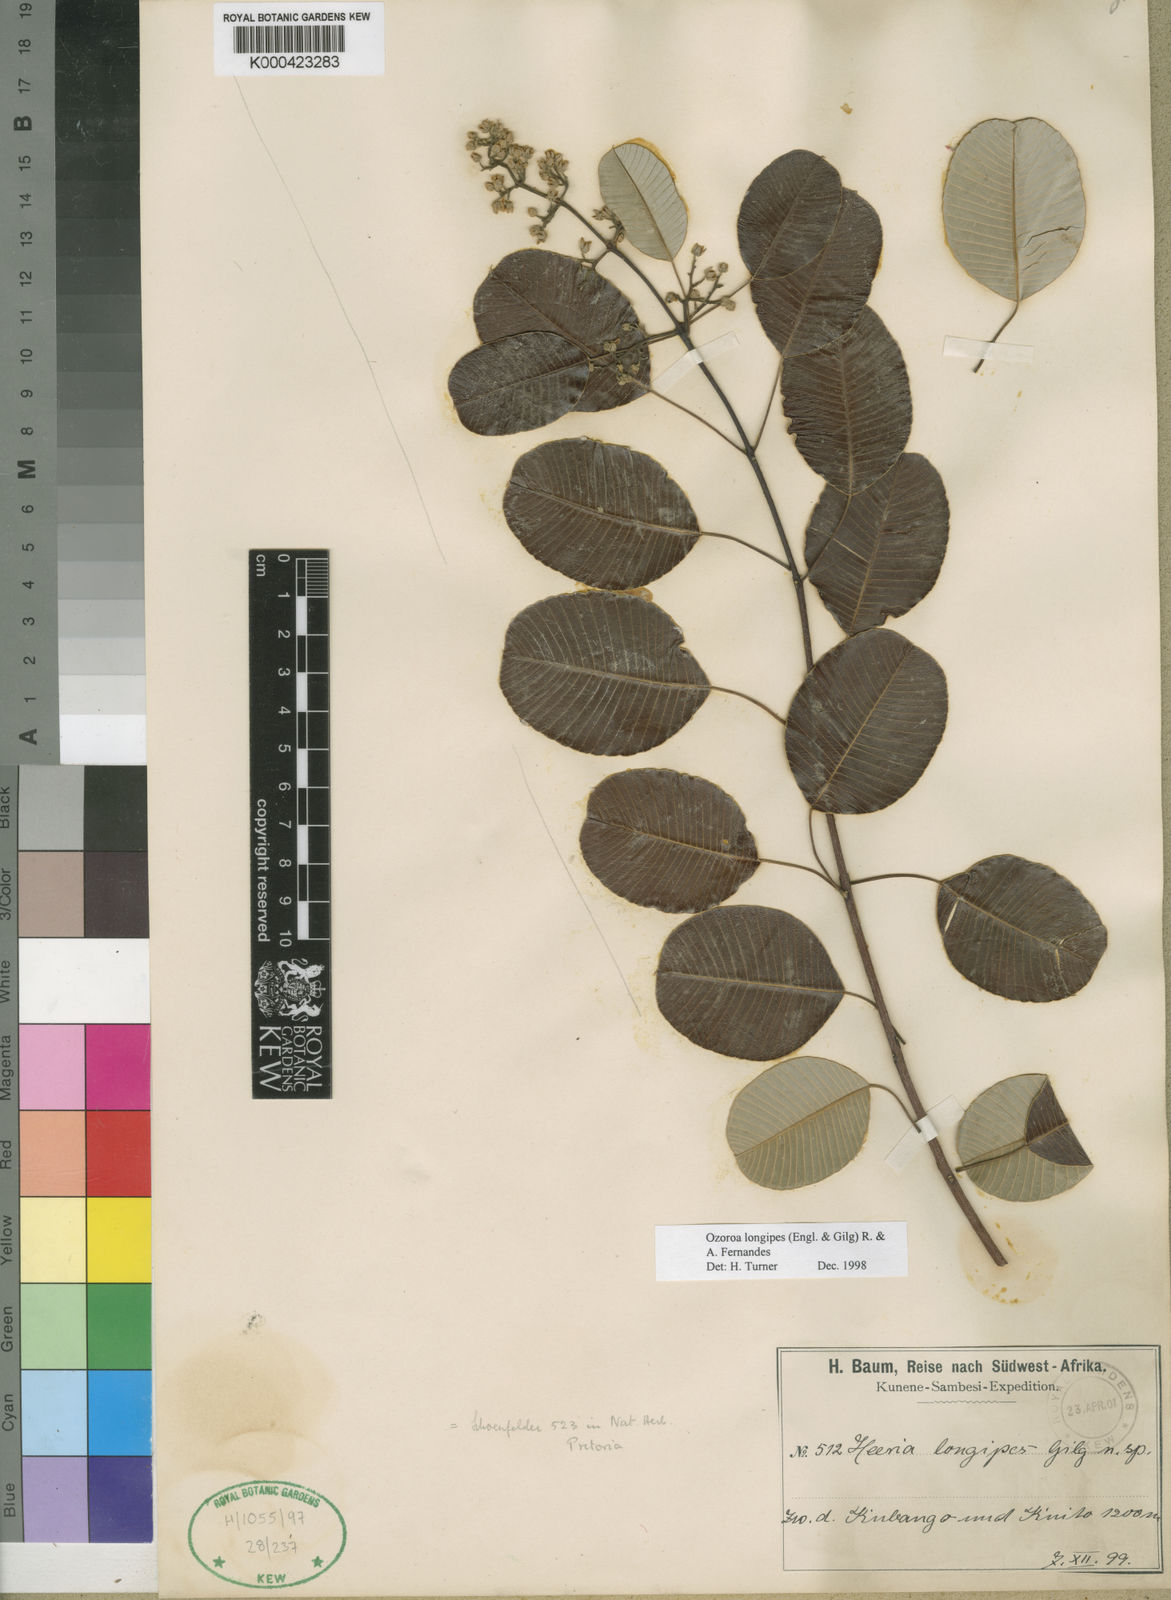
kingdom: Plantae
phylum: Tracheophyta
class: Magnoliopsida
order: Sapindales
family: Anacardiaceae
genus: Ozoroa
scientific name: Ozoroa longipes
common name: Round-leaved resin tree
